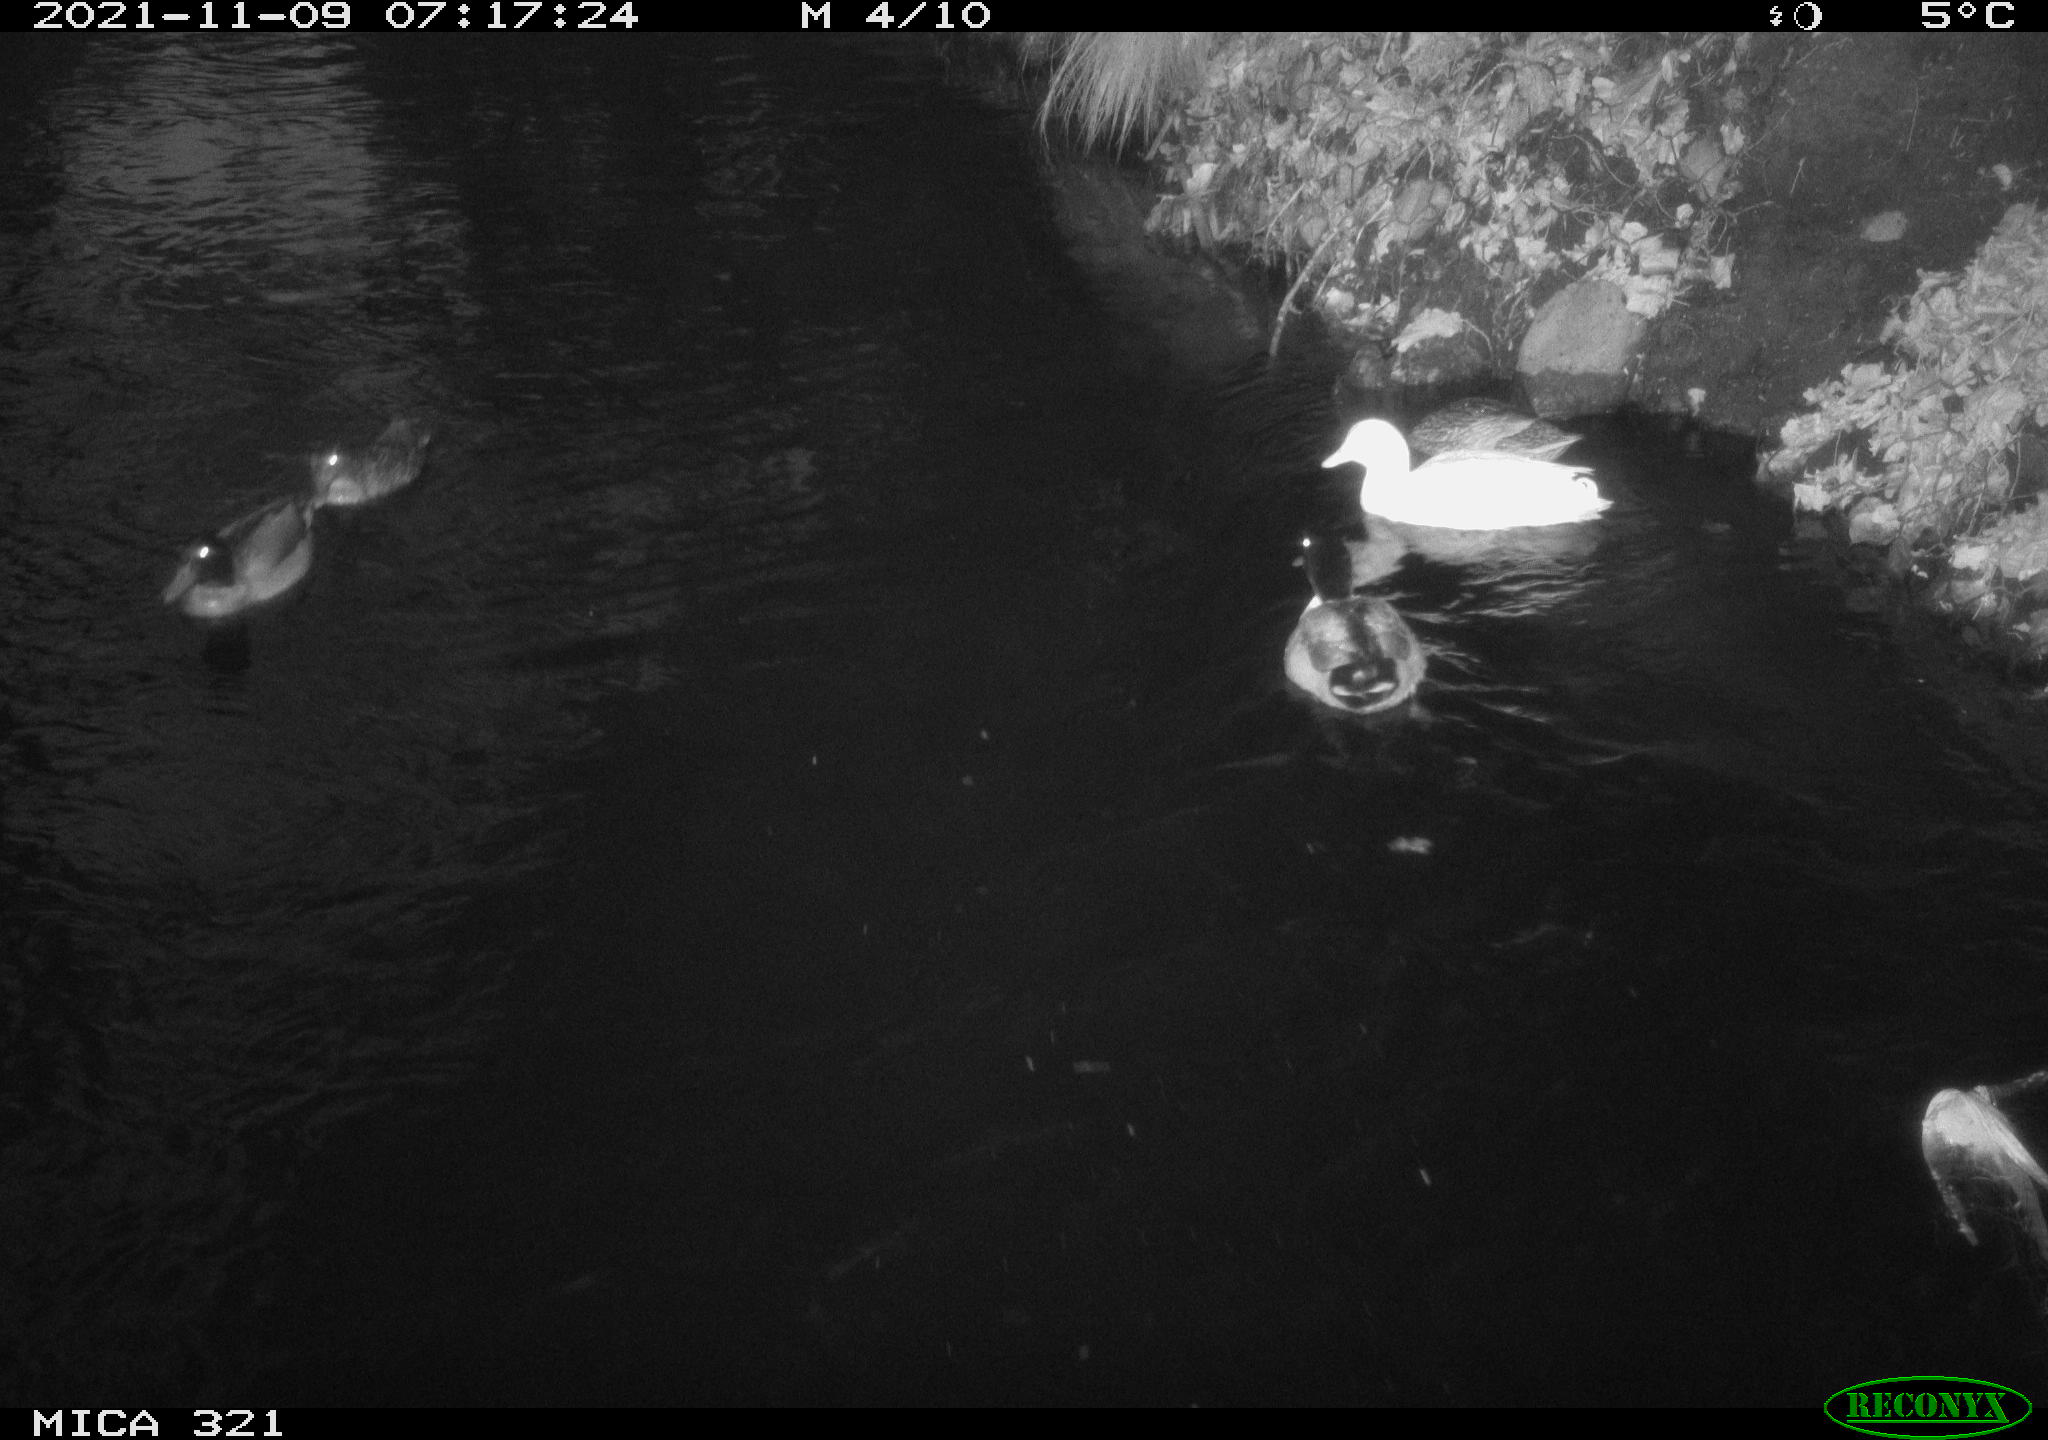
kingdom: Animalia
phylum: Chordata
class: Aves
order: Gruiformes
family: Rallidae
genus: Fulica
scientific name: Fulica atra
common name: Eurasian coot
